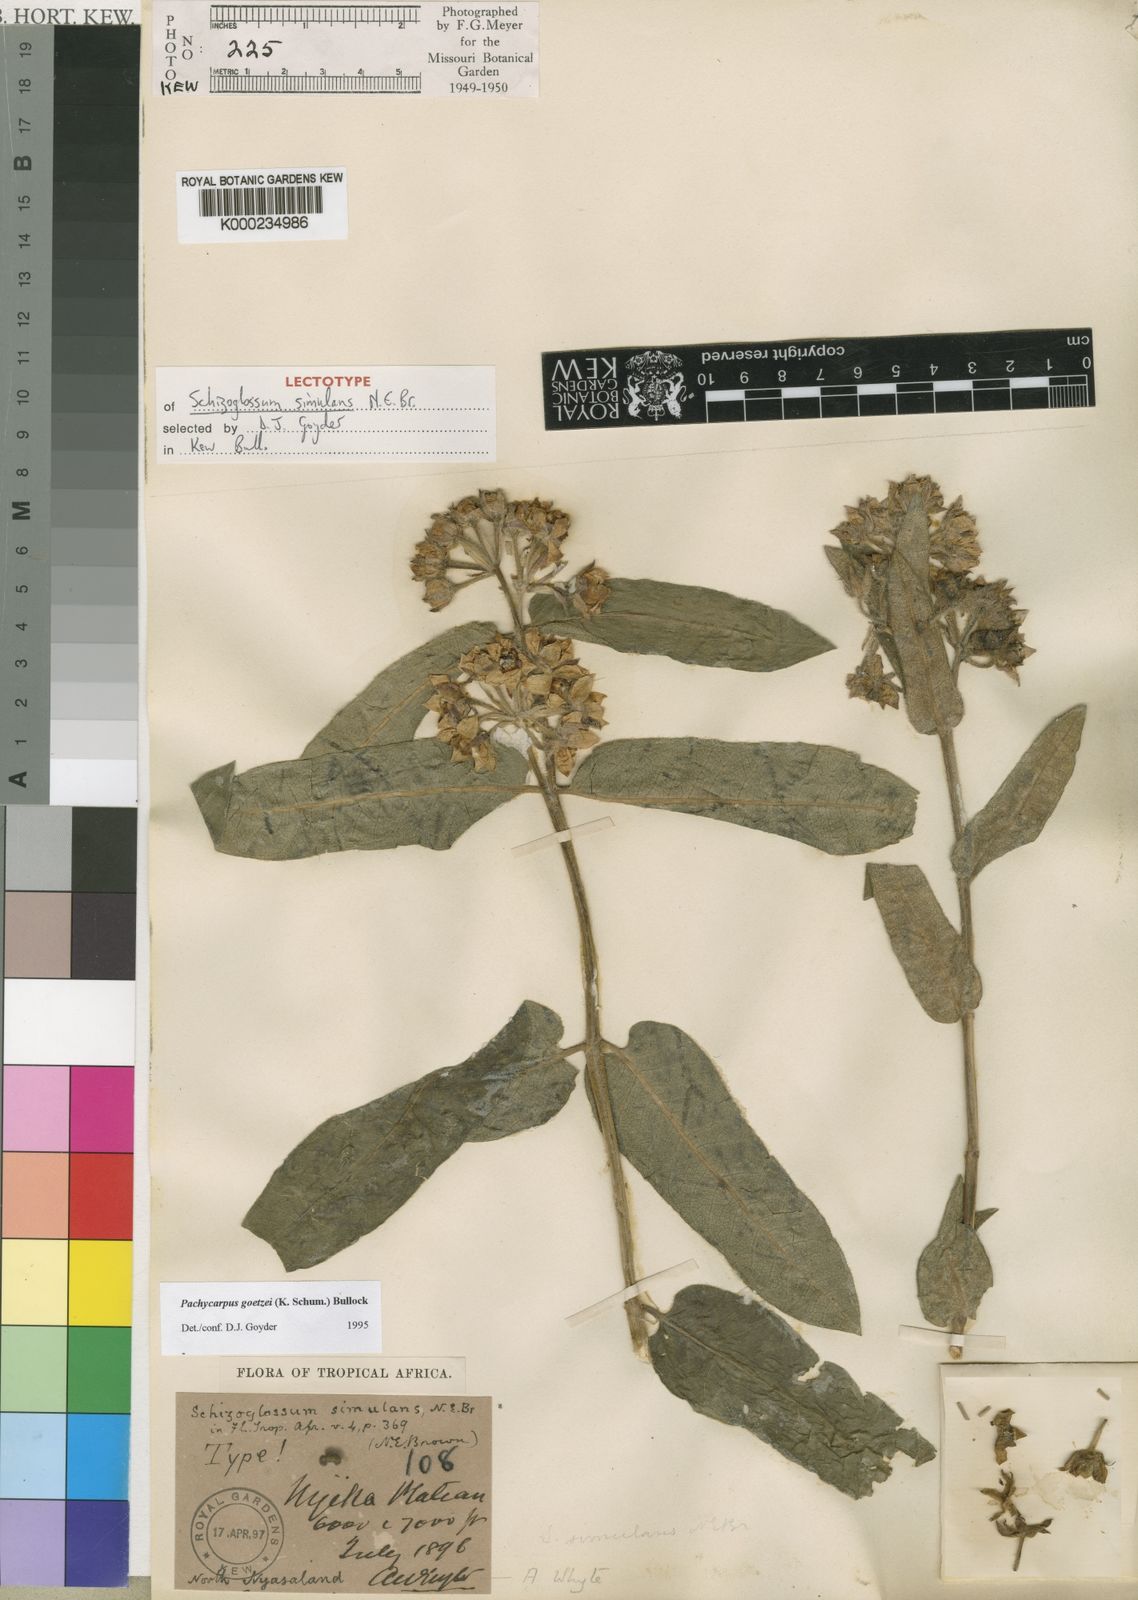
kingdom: Plantae
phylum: Tracheophyta
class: Magnoliopsida
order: Gentianales
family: Apocynaceae
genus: Pachycarpus
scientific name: Pachycarpus goetzei
